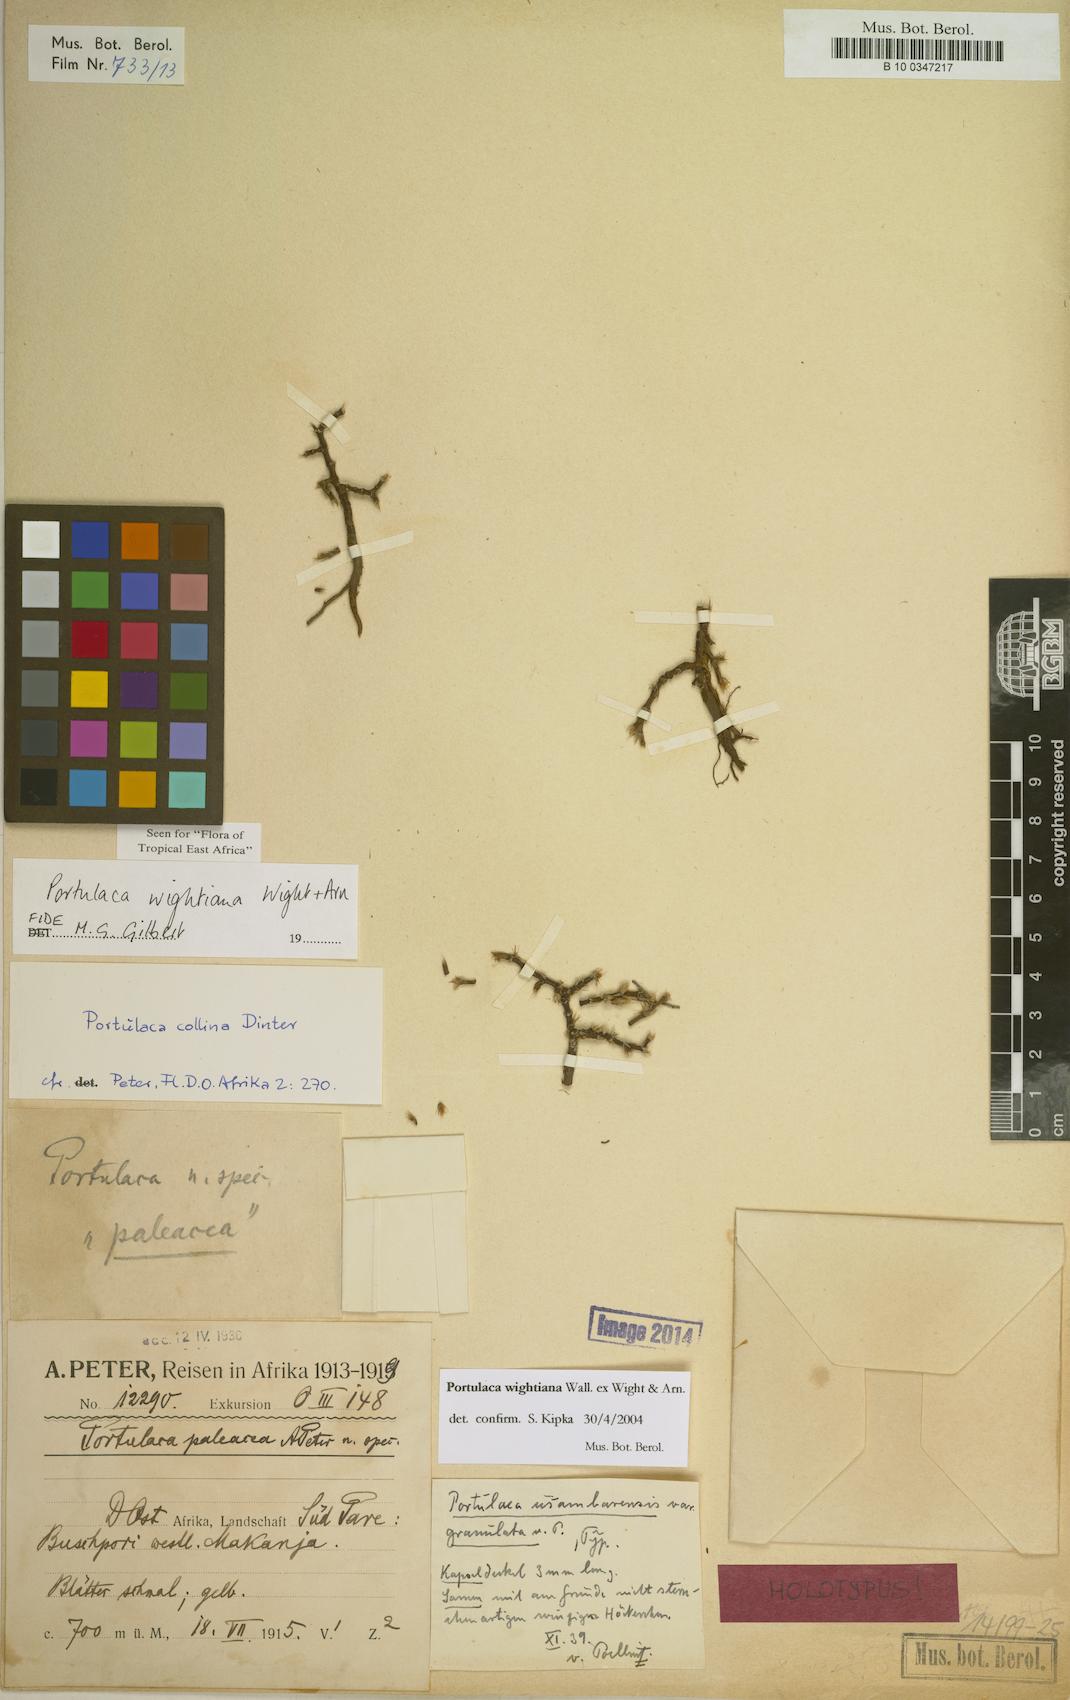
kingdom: Plantae
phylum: Tracheophyta
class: Magnoliopsida
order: Caryophyllales
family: Portulacaceae
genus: Portulaca
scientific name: Portulaca wightiana
